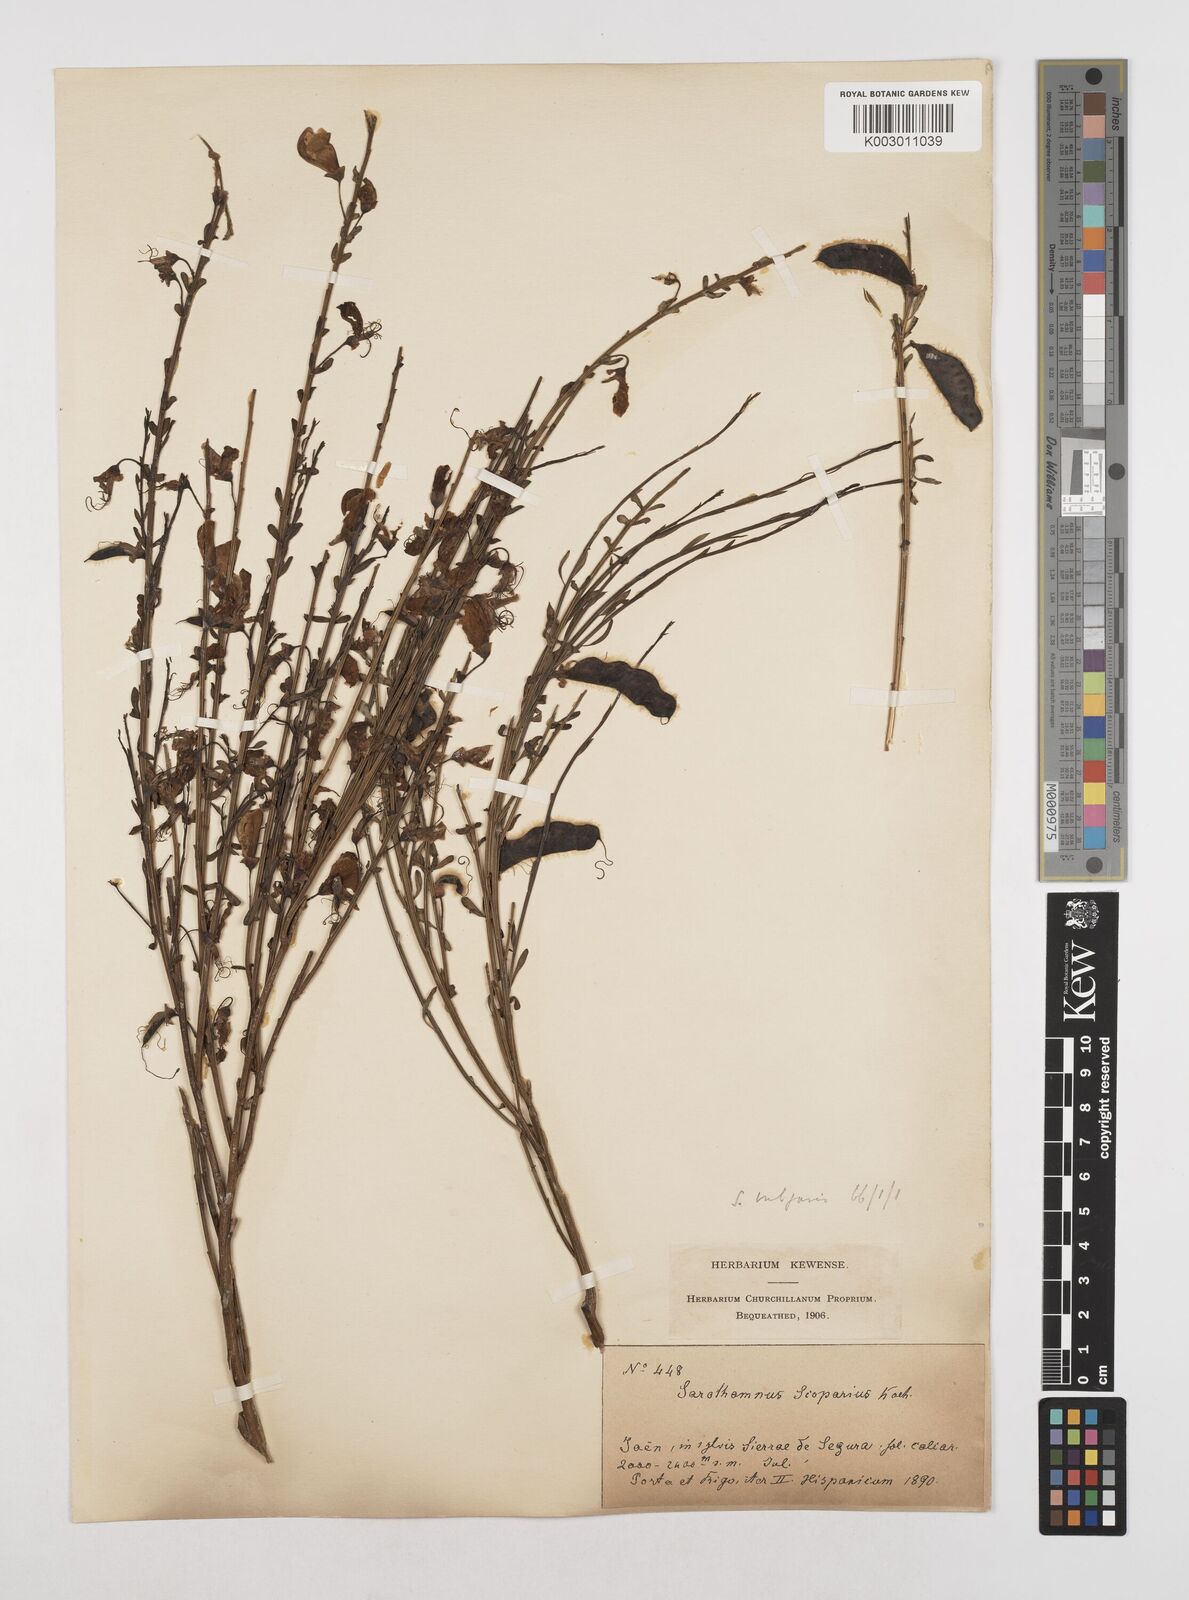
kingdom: Plantae
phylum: Tracheophyta
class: Magnoliopsida
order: Fabales
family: Fabaceae
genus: Cytisus
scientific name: Cytisus scoparius
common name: Scotch broom
